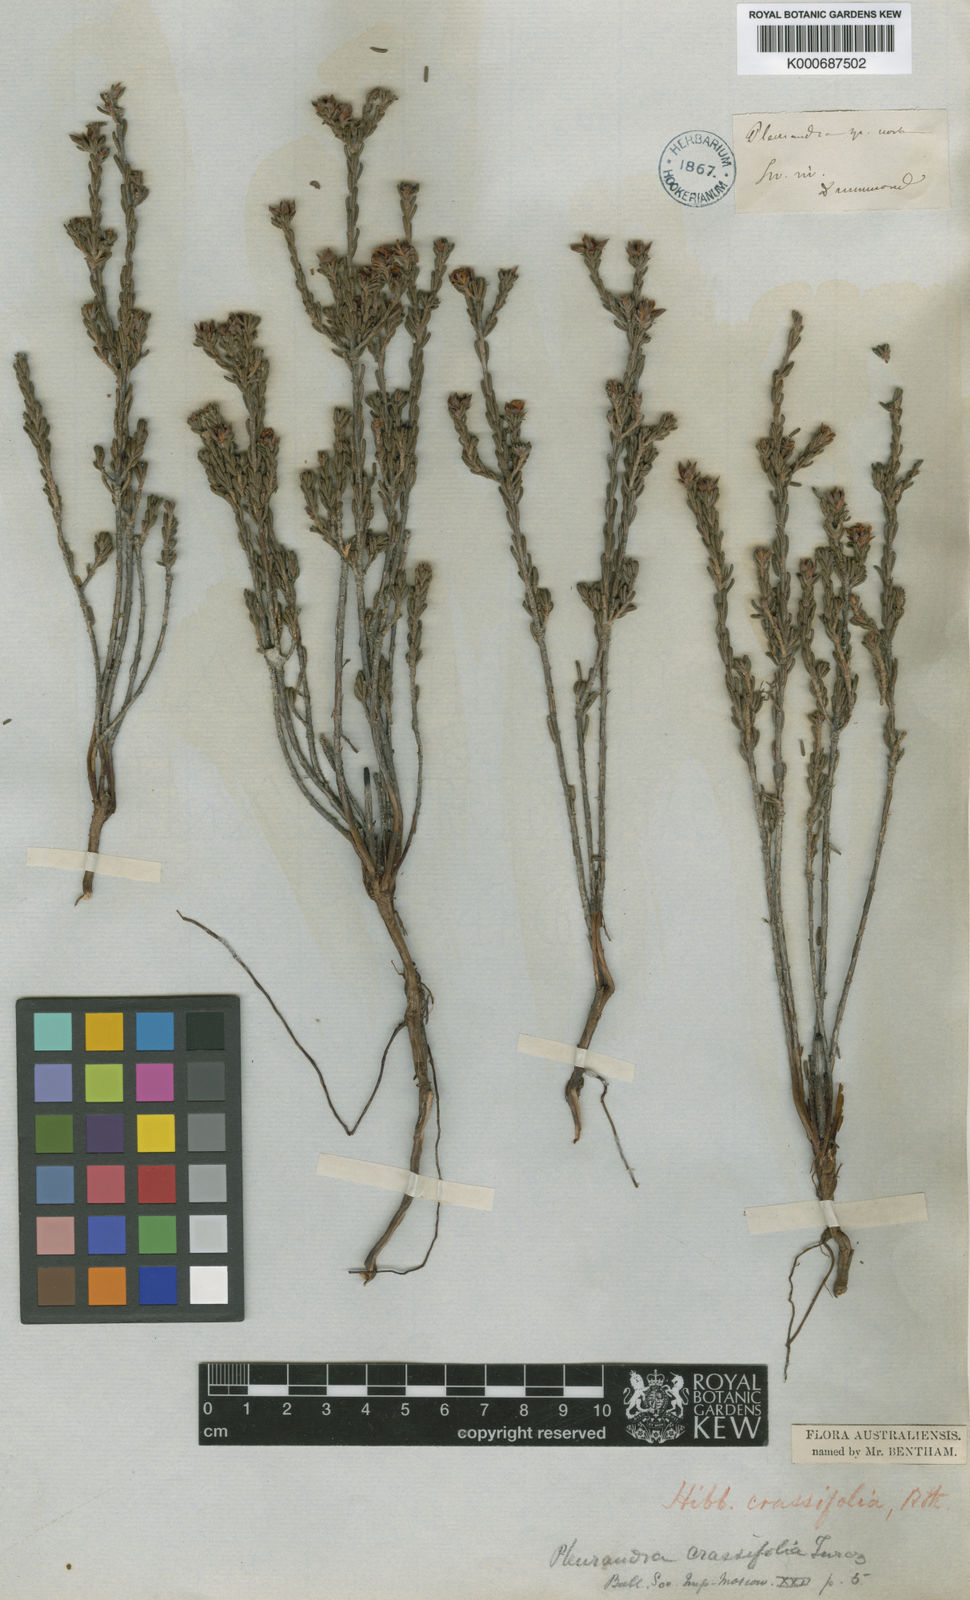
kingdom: Plantae
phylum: Tracheophyta
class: Magnoliopsida
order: Dilleniales
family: Dilleniaceae
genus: Hibbertia
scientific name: Hibbertia crassifolia
